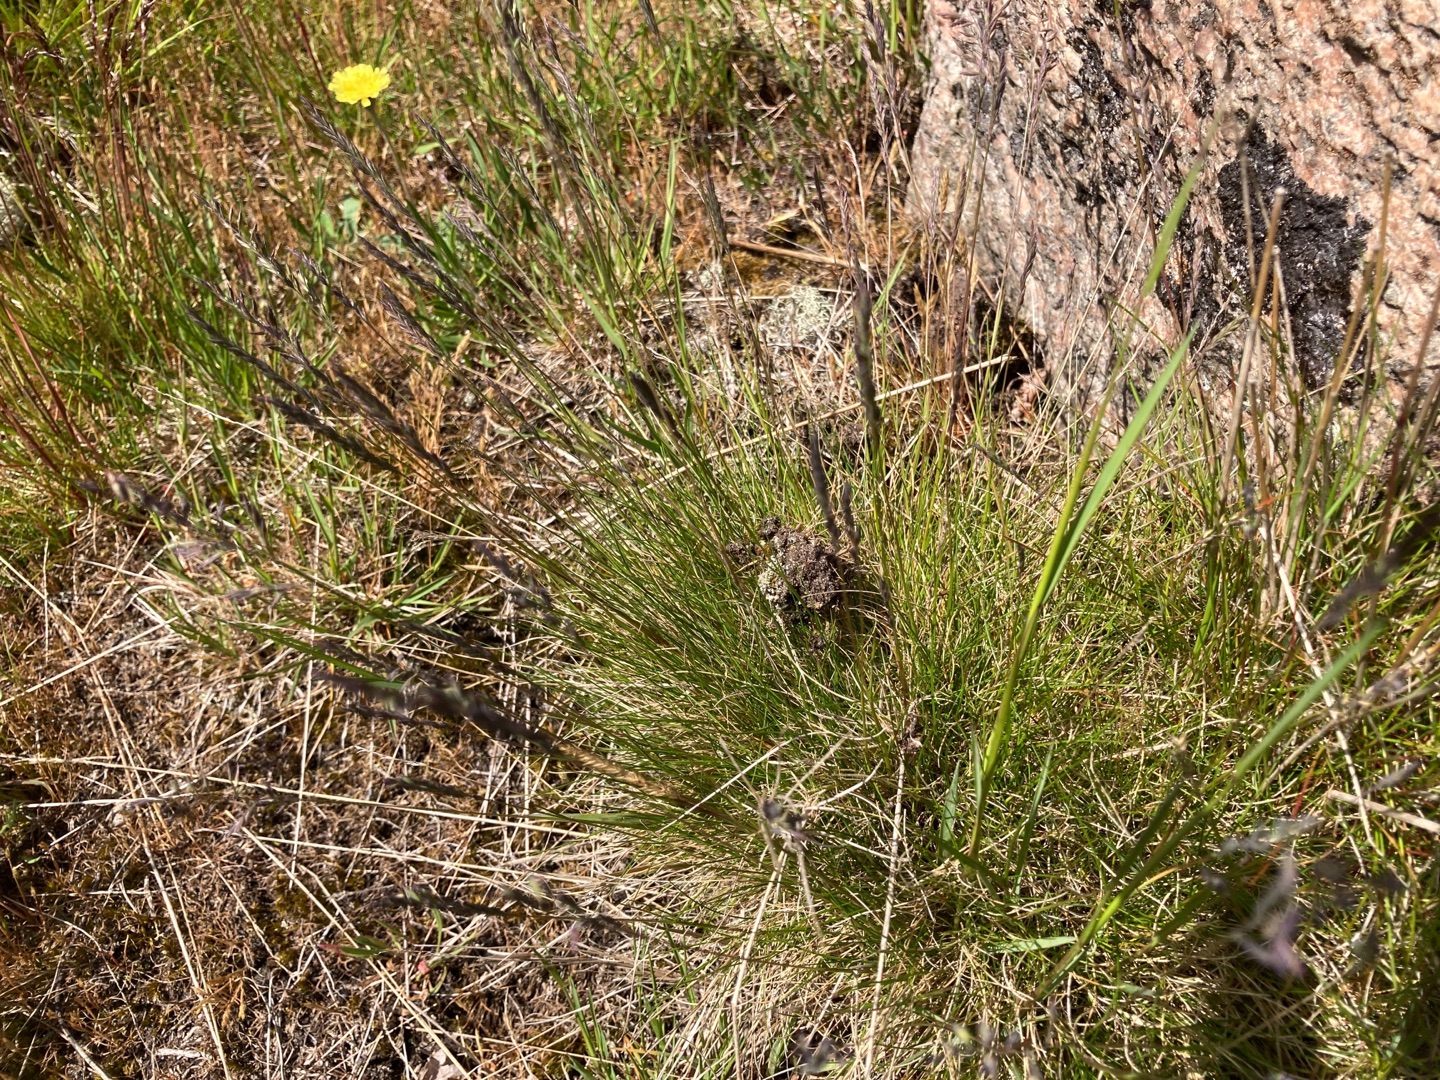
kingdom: Plantae
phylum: Tracheophyta
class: Liliopsida
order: Poales
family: Poaceae
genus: Festuca
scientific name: Festuca ovina
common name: Fåre-svingel
